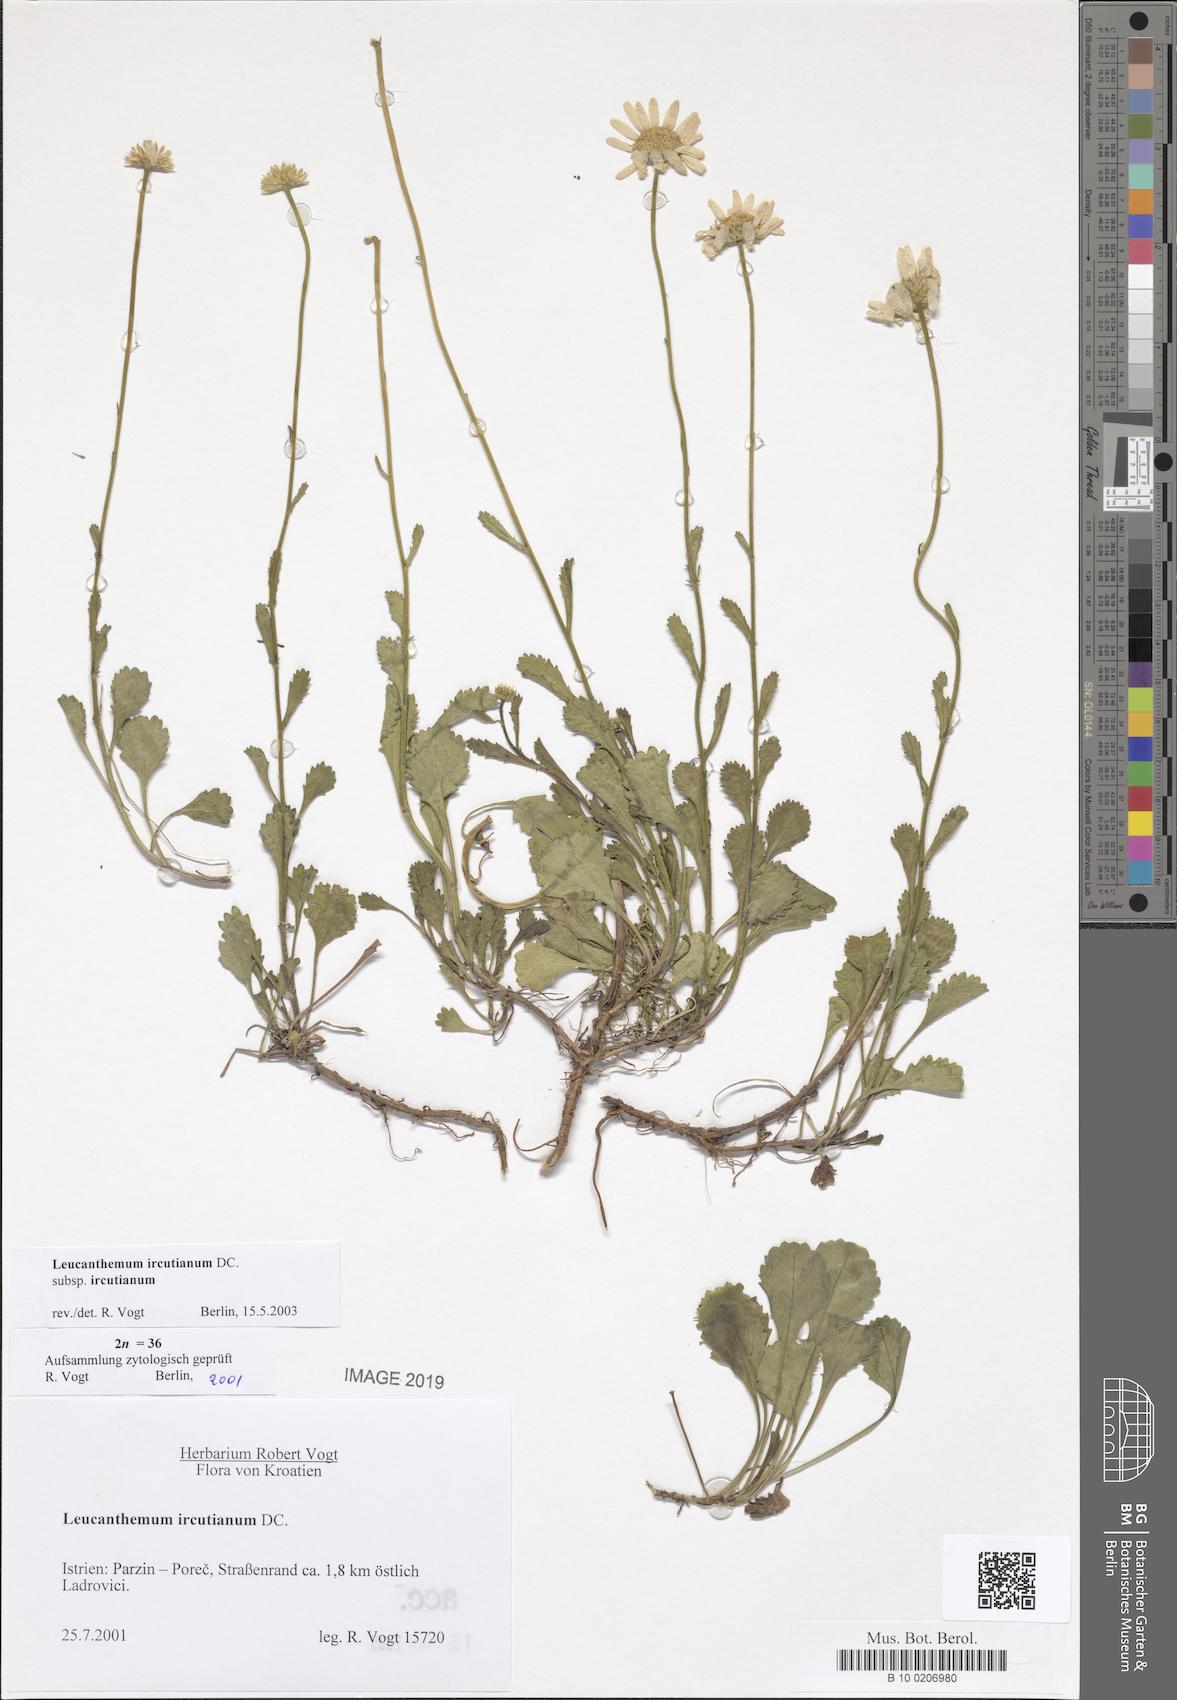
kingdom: Plantae
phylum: Tracheophyta
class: Magnoliopsida
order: Asterales
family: Asteraceae
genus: Leucanthemum
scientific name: Leucanthemum ircutianum
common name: Daisy
